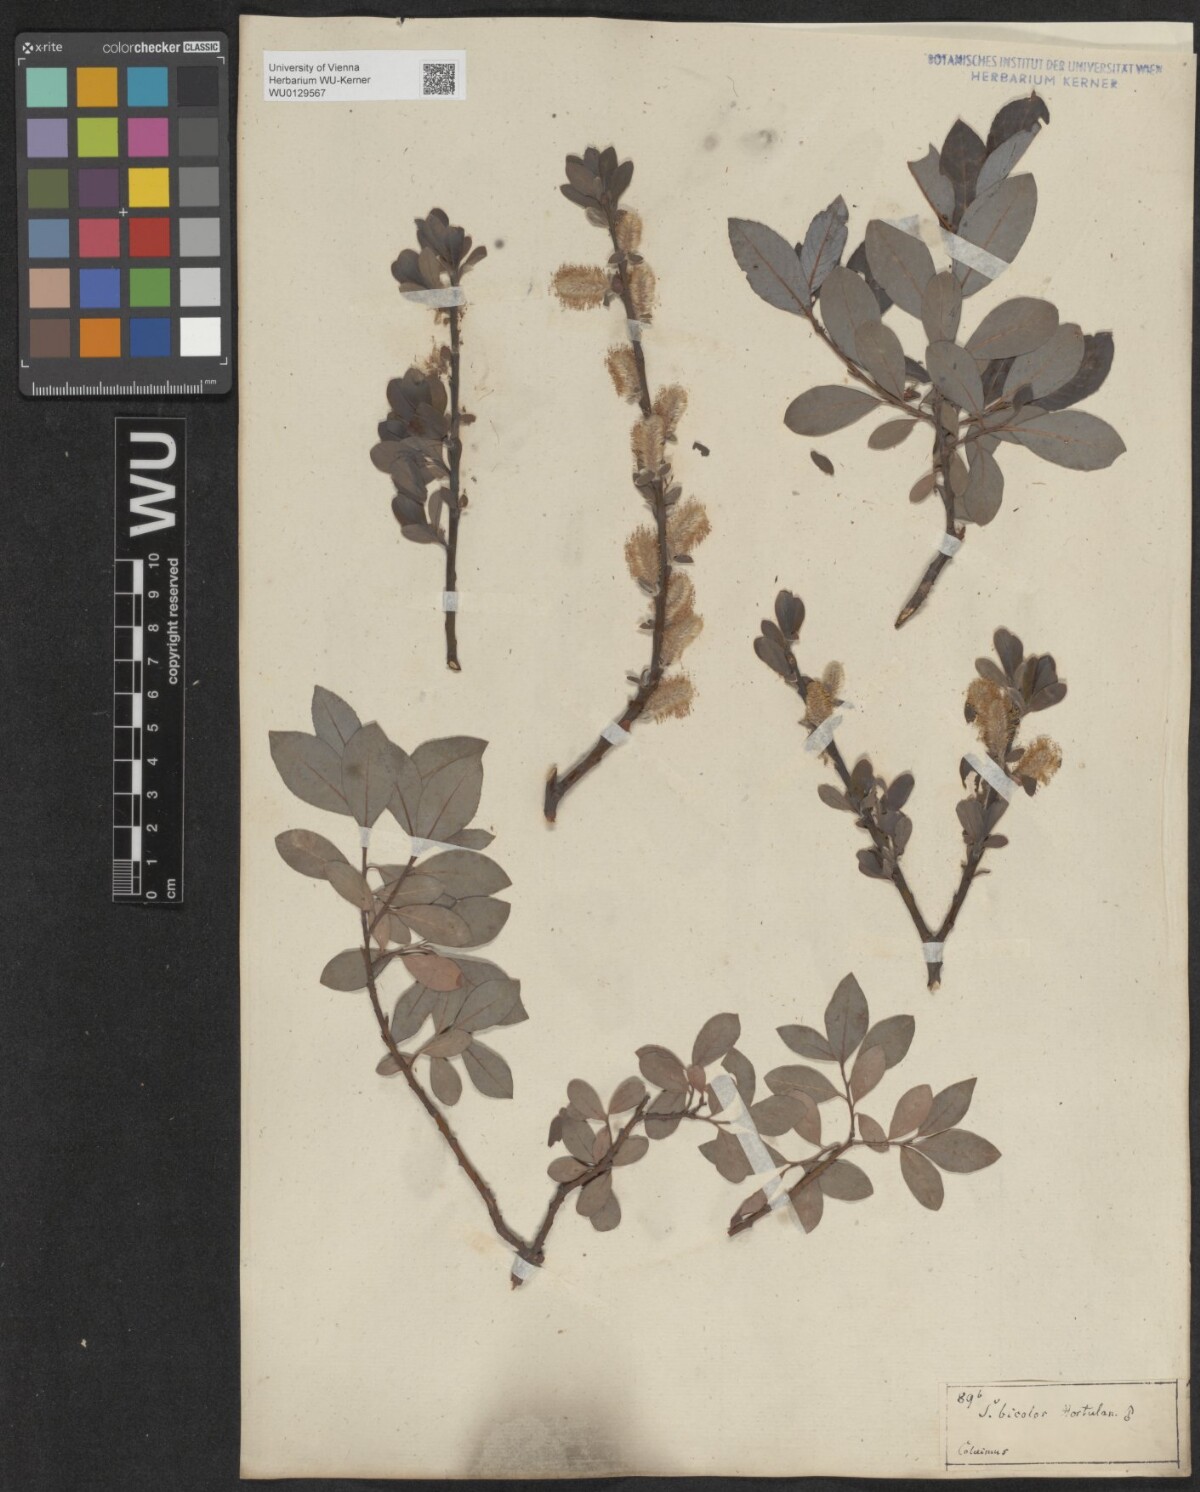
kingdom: Plantae
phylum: Tracheophyta
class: Magnoliopsida
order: Malpighiales
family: Salicaceae
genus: Salix
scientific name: Salix bicolor
